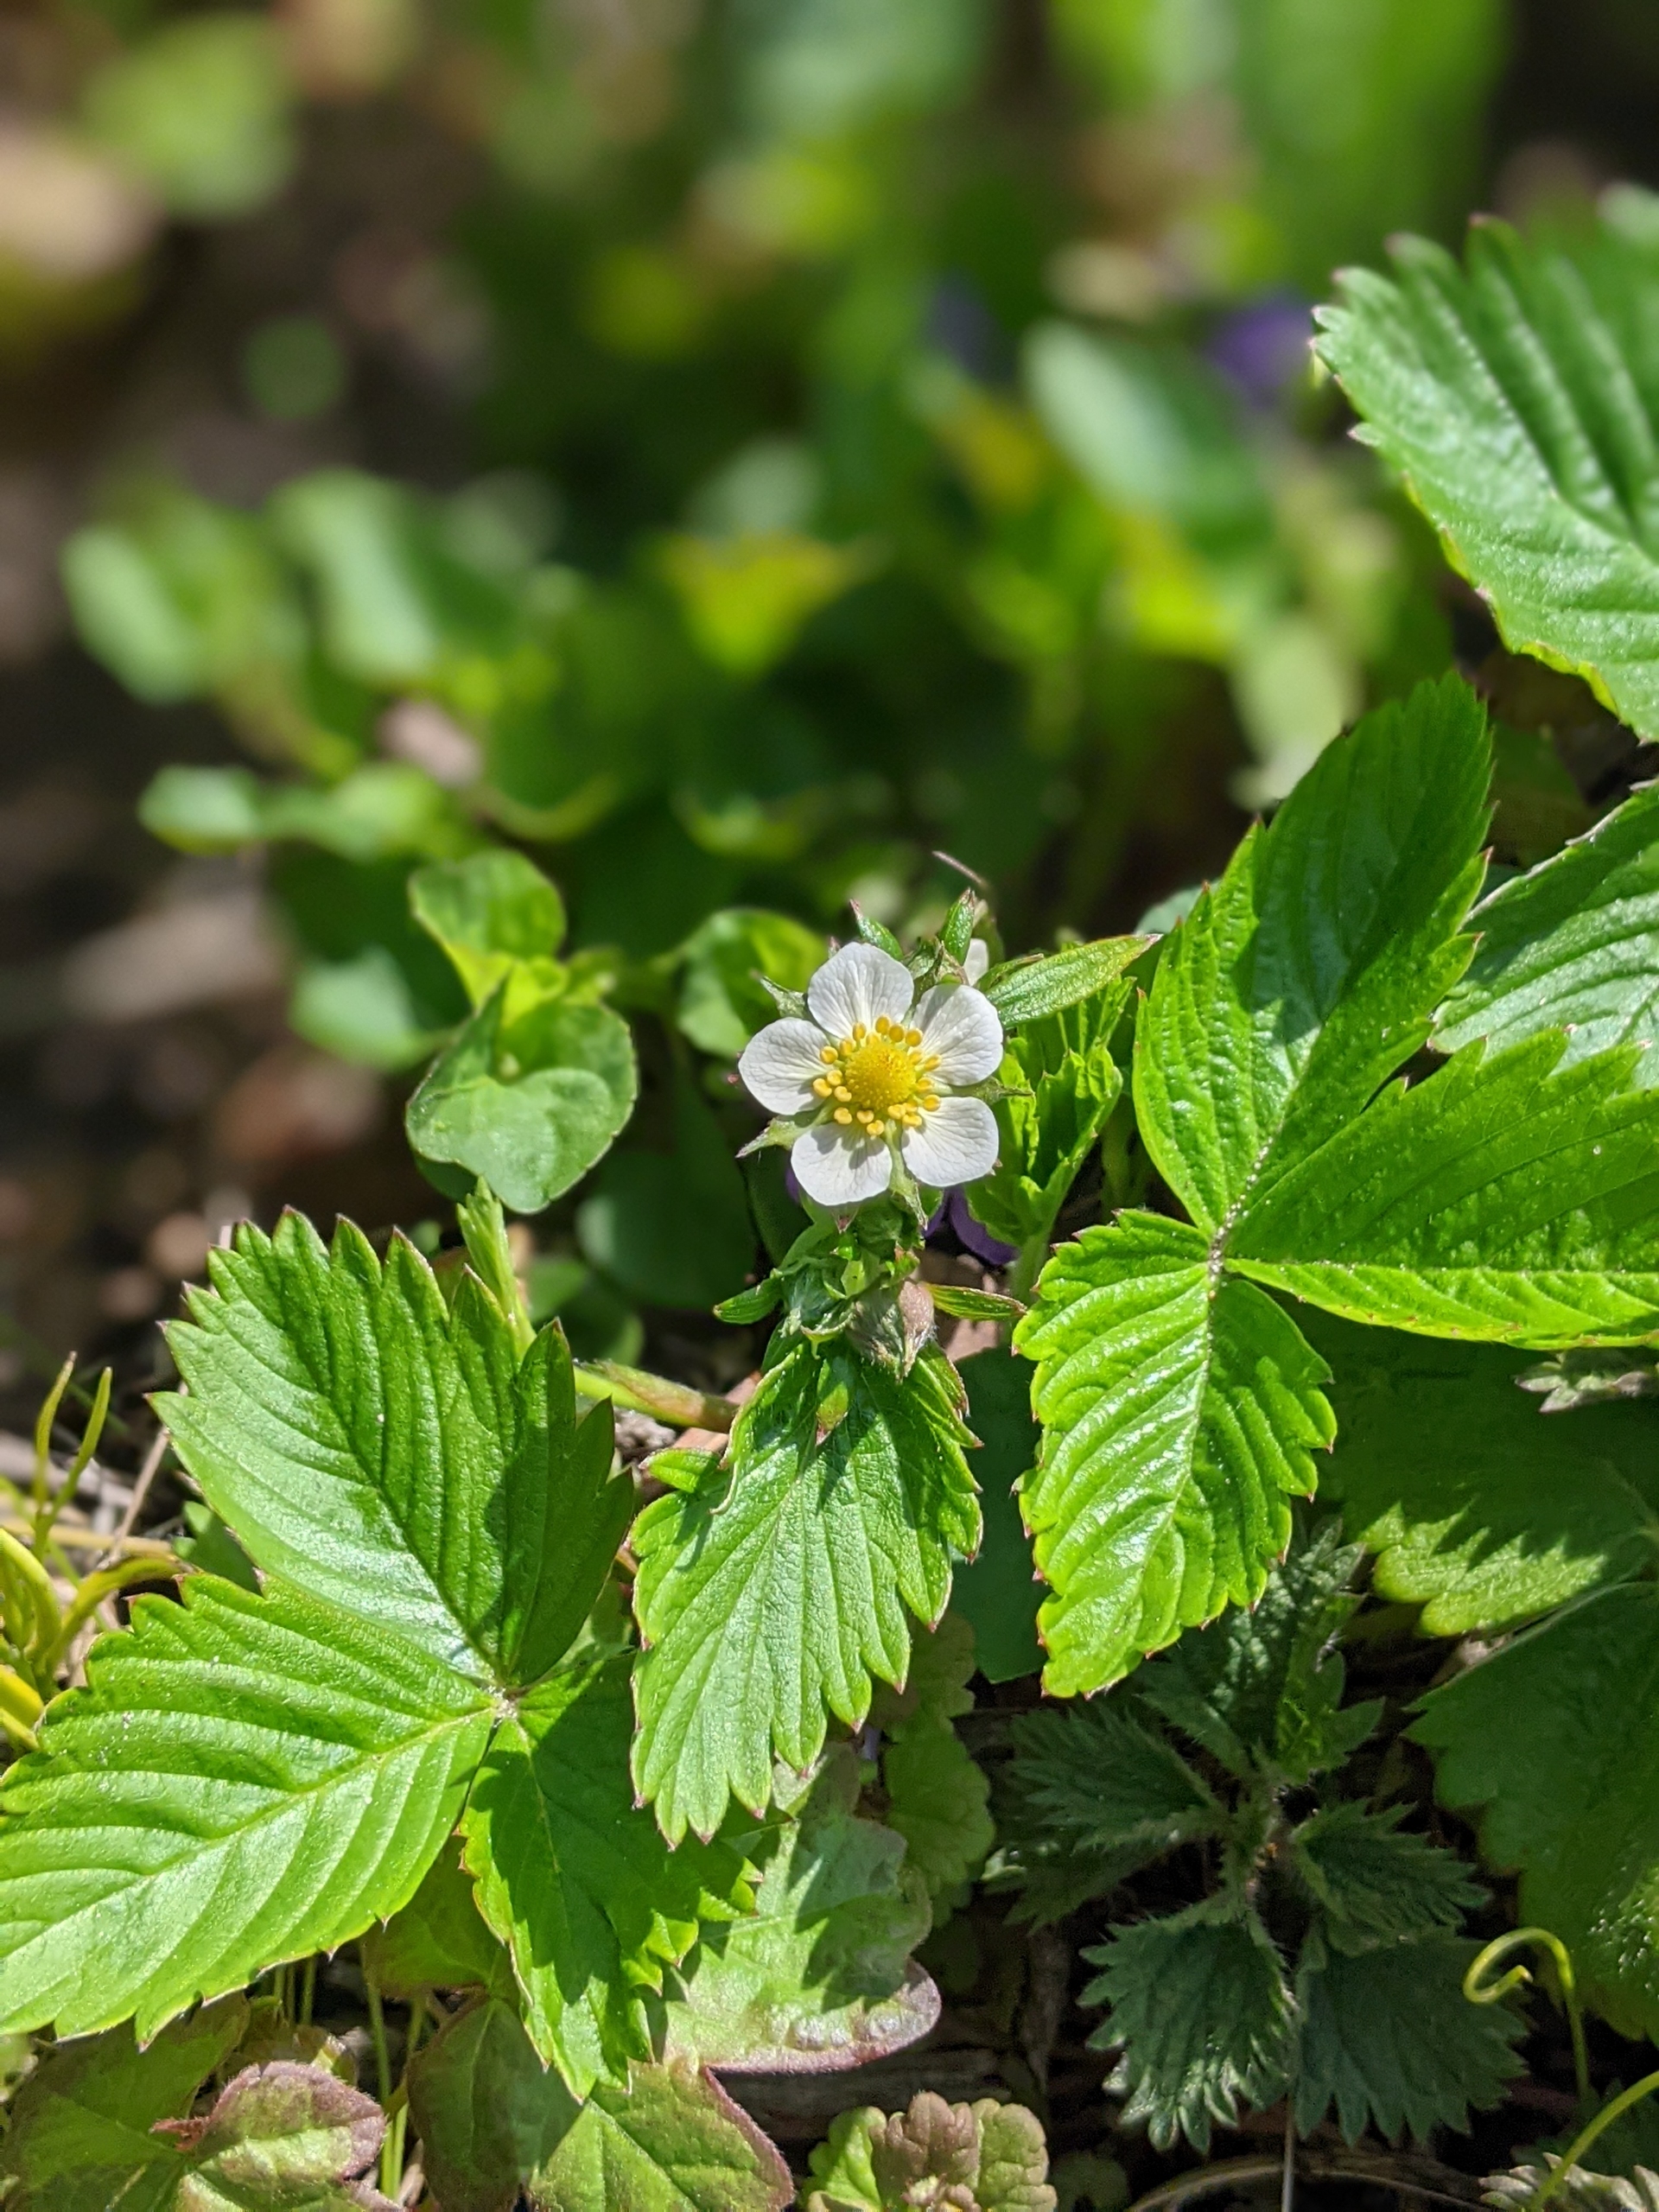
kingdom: Plantae
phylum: Tracheophyta
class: Magnoliopsida
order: Rosales
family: Rosaceae
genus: Fragaria
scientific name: Fragaria vesca
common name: Skov-jordbær
